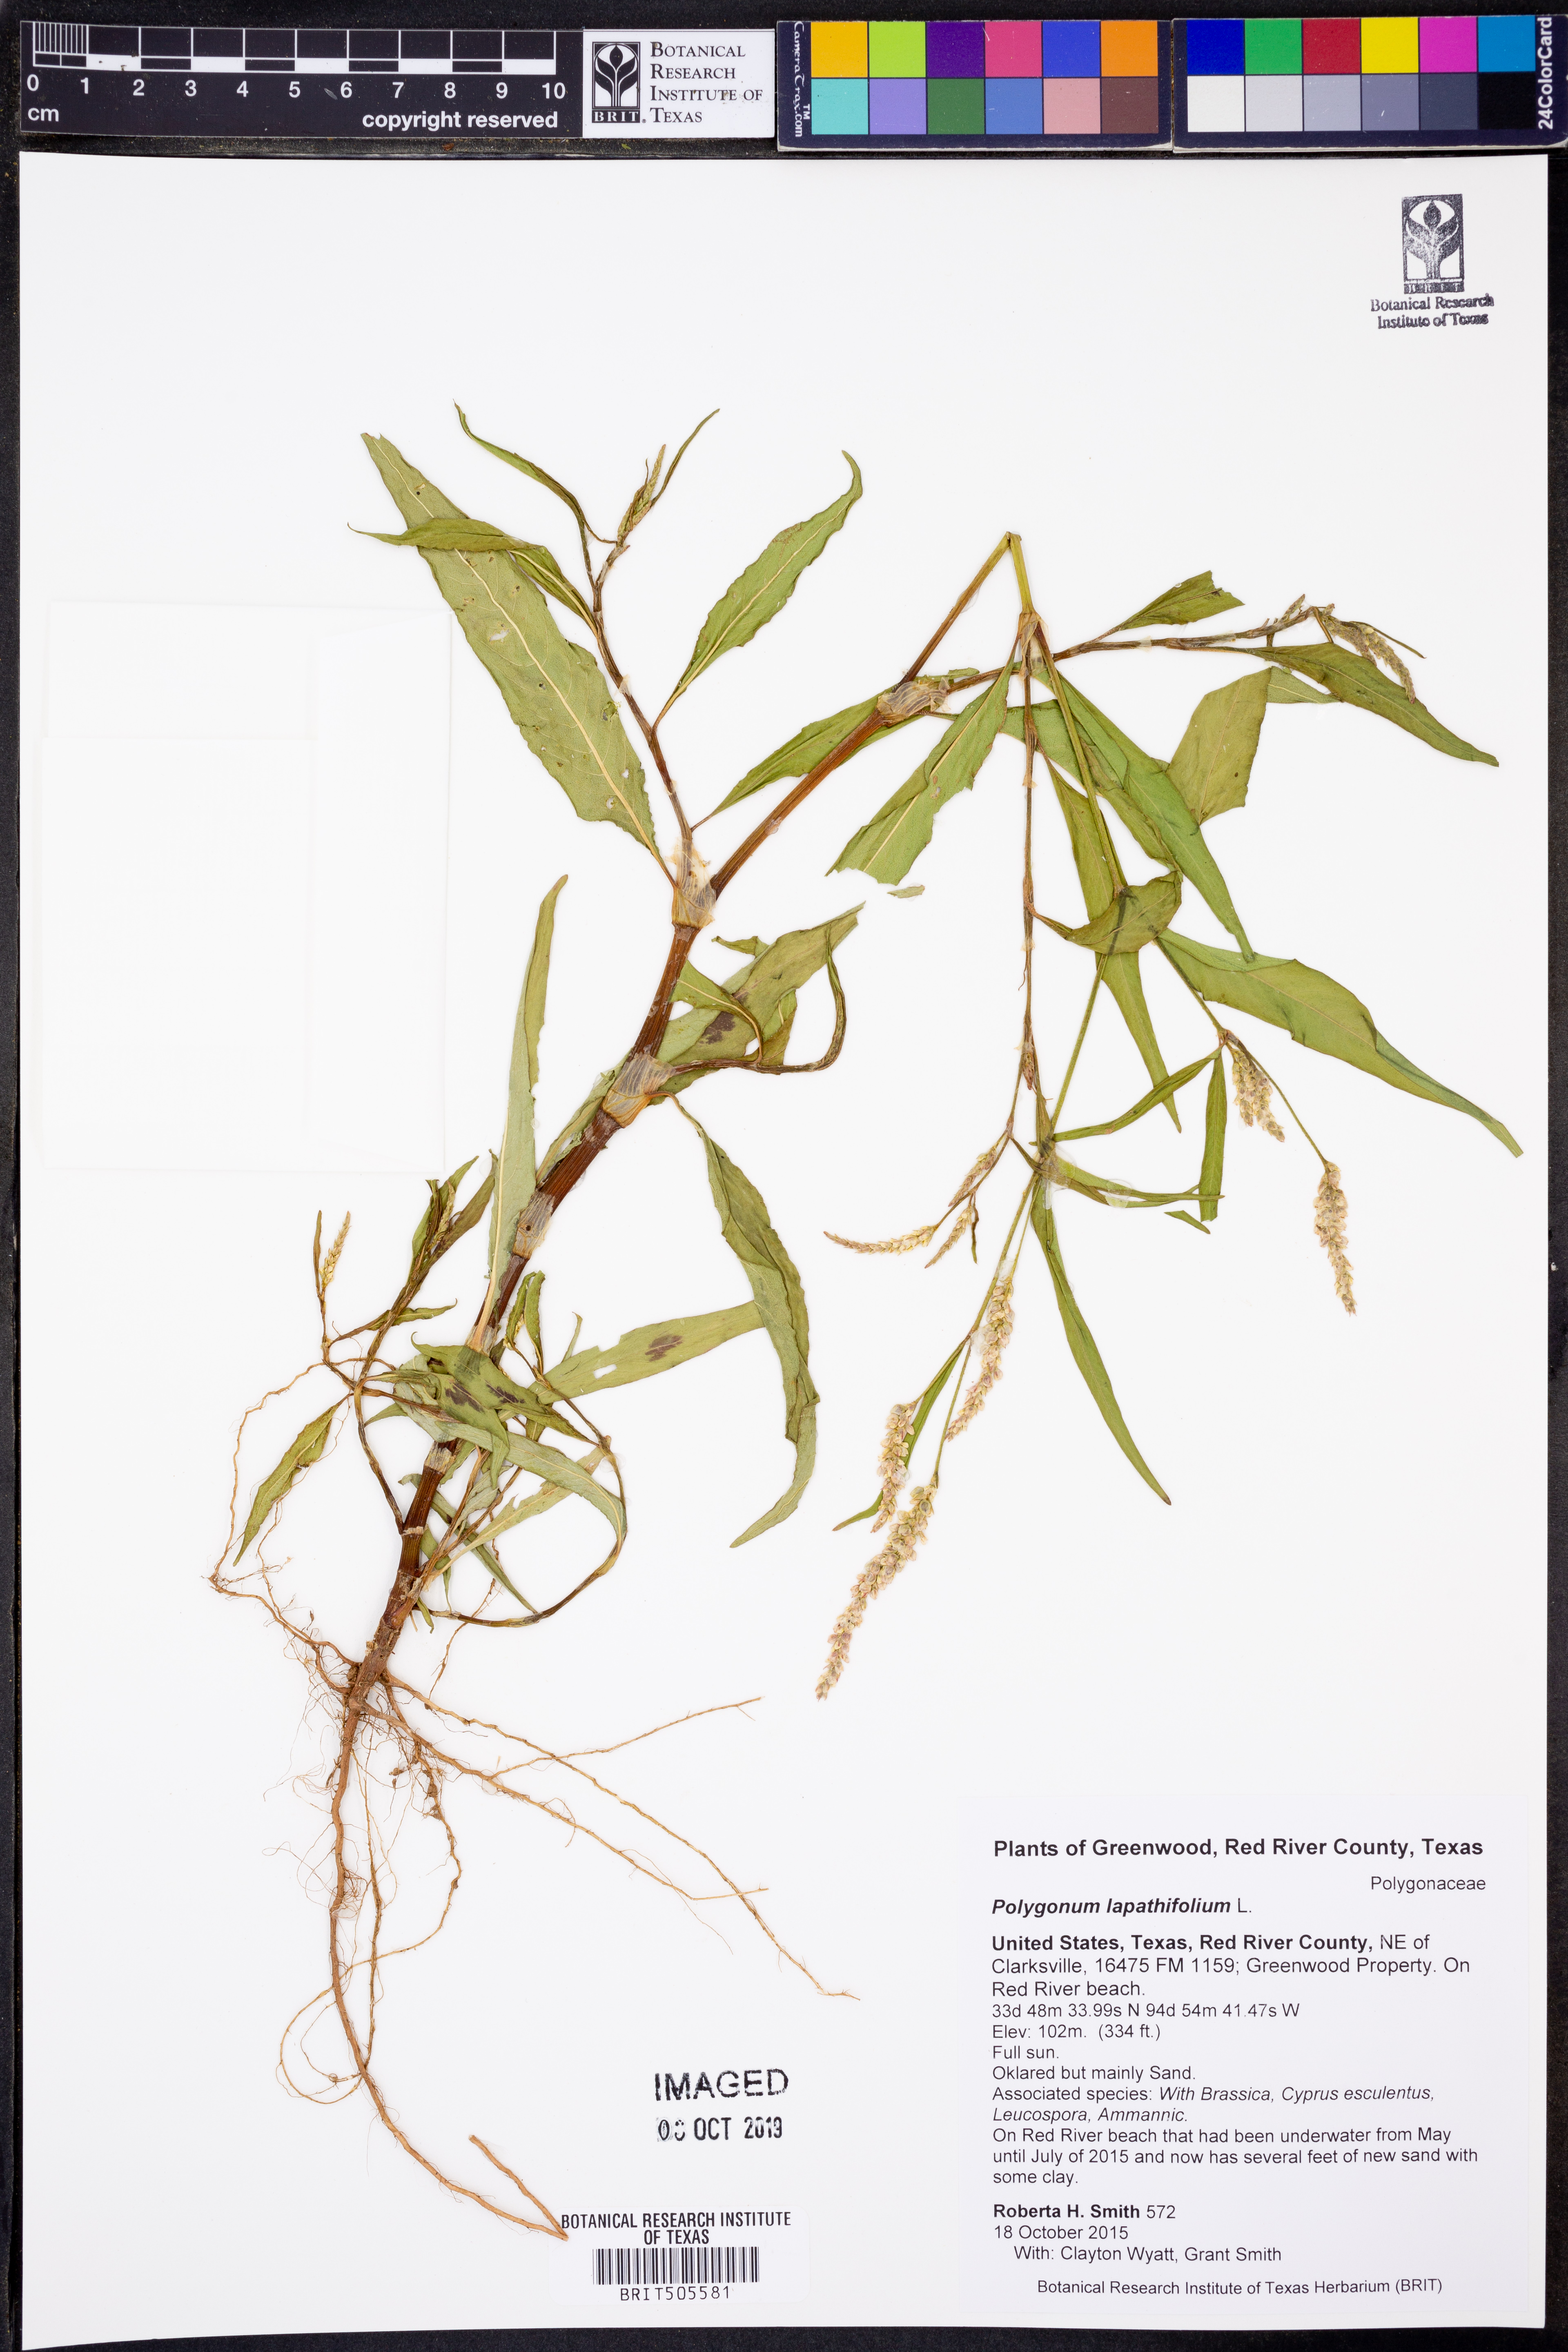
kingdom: Plantae
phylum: Tracheophyta
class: Magnoliopsida
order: Caryophyllales
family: Polygonaceae
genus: Persicaria
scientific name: Persicaria lapathifolia
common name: Curlytop knotweed
